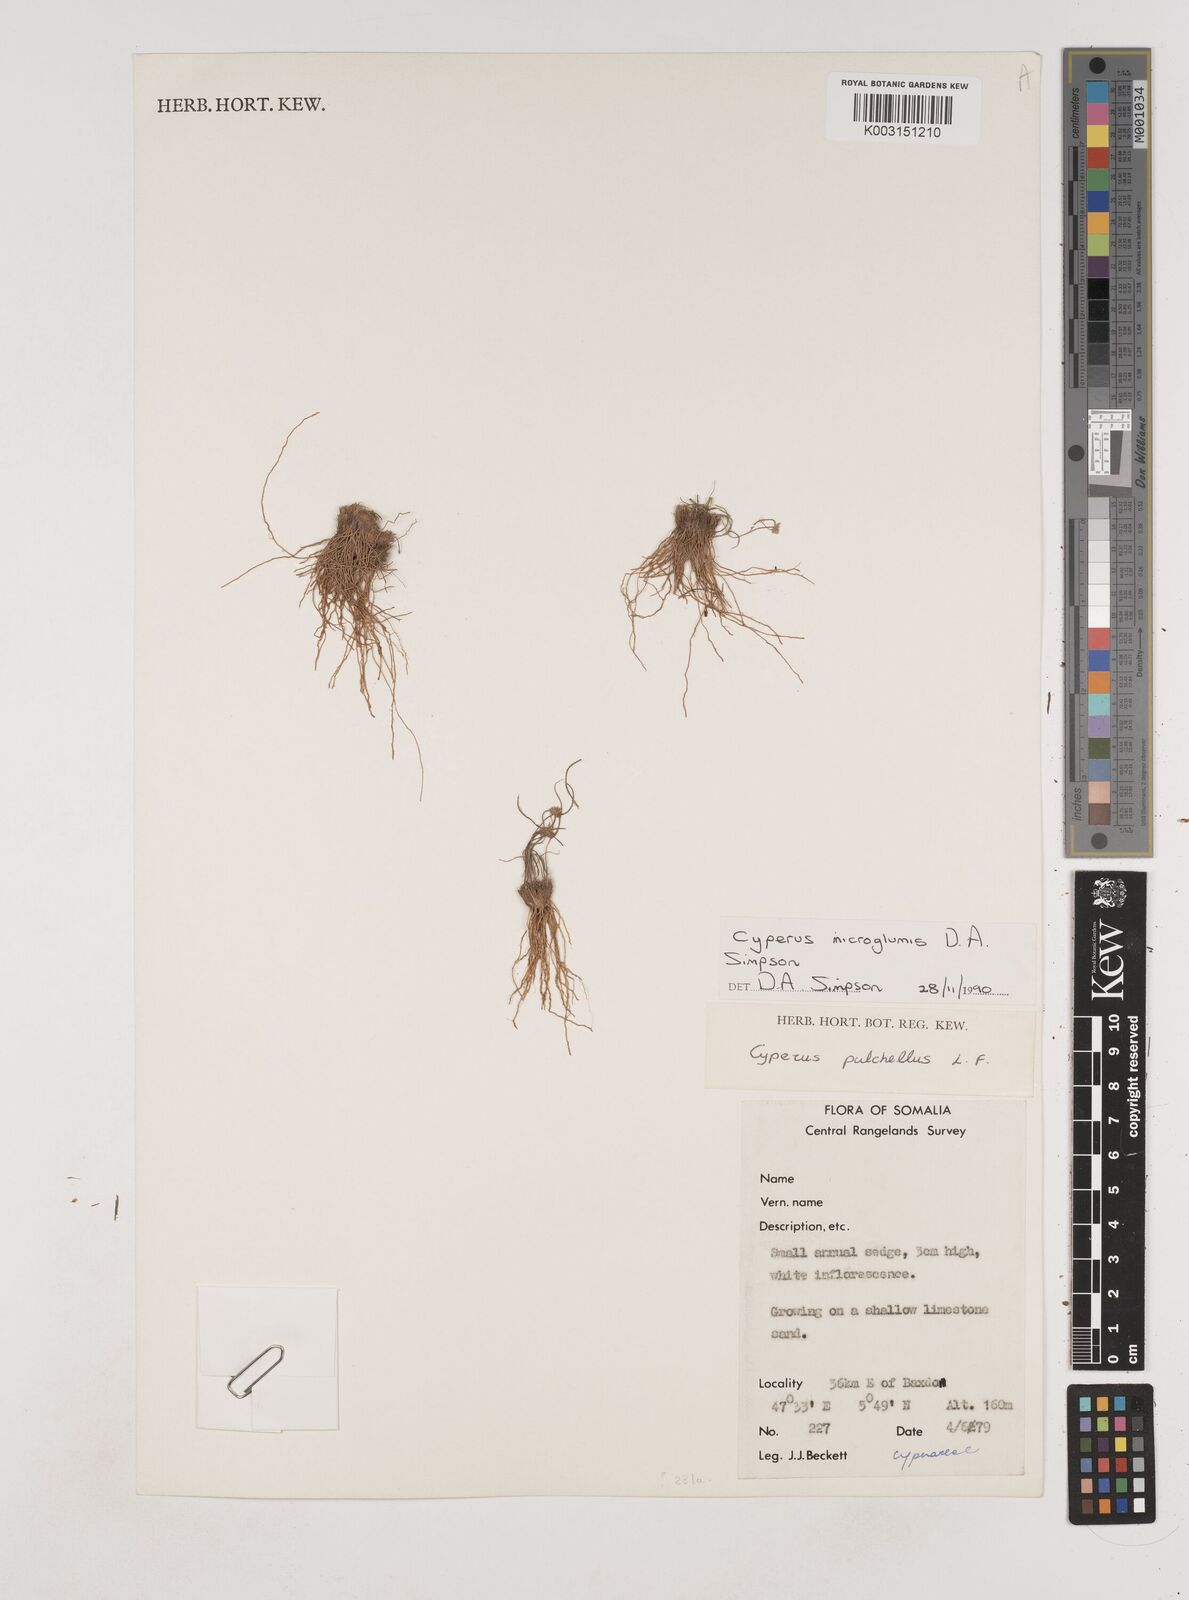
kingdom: Plantae
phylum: Tracheophyta
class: Liliopsida
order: Poales
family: Cyperaceae
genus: Cyperus
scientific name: Cyperus microglumis
